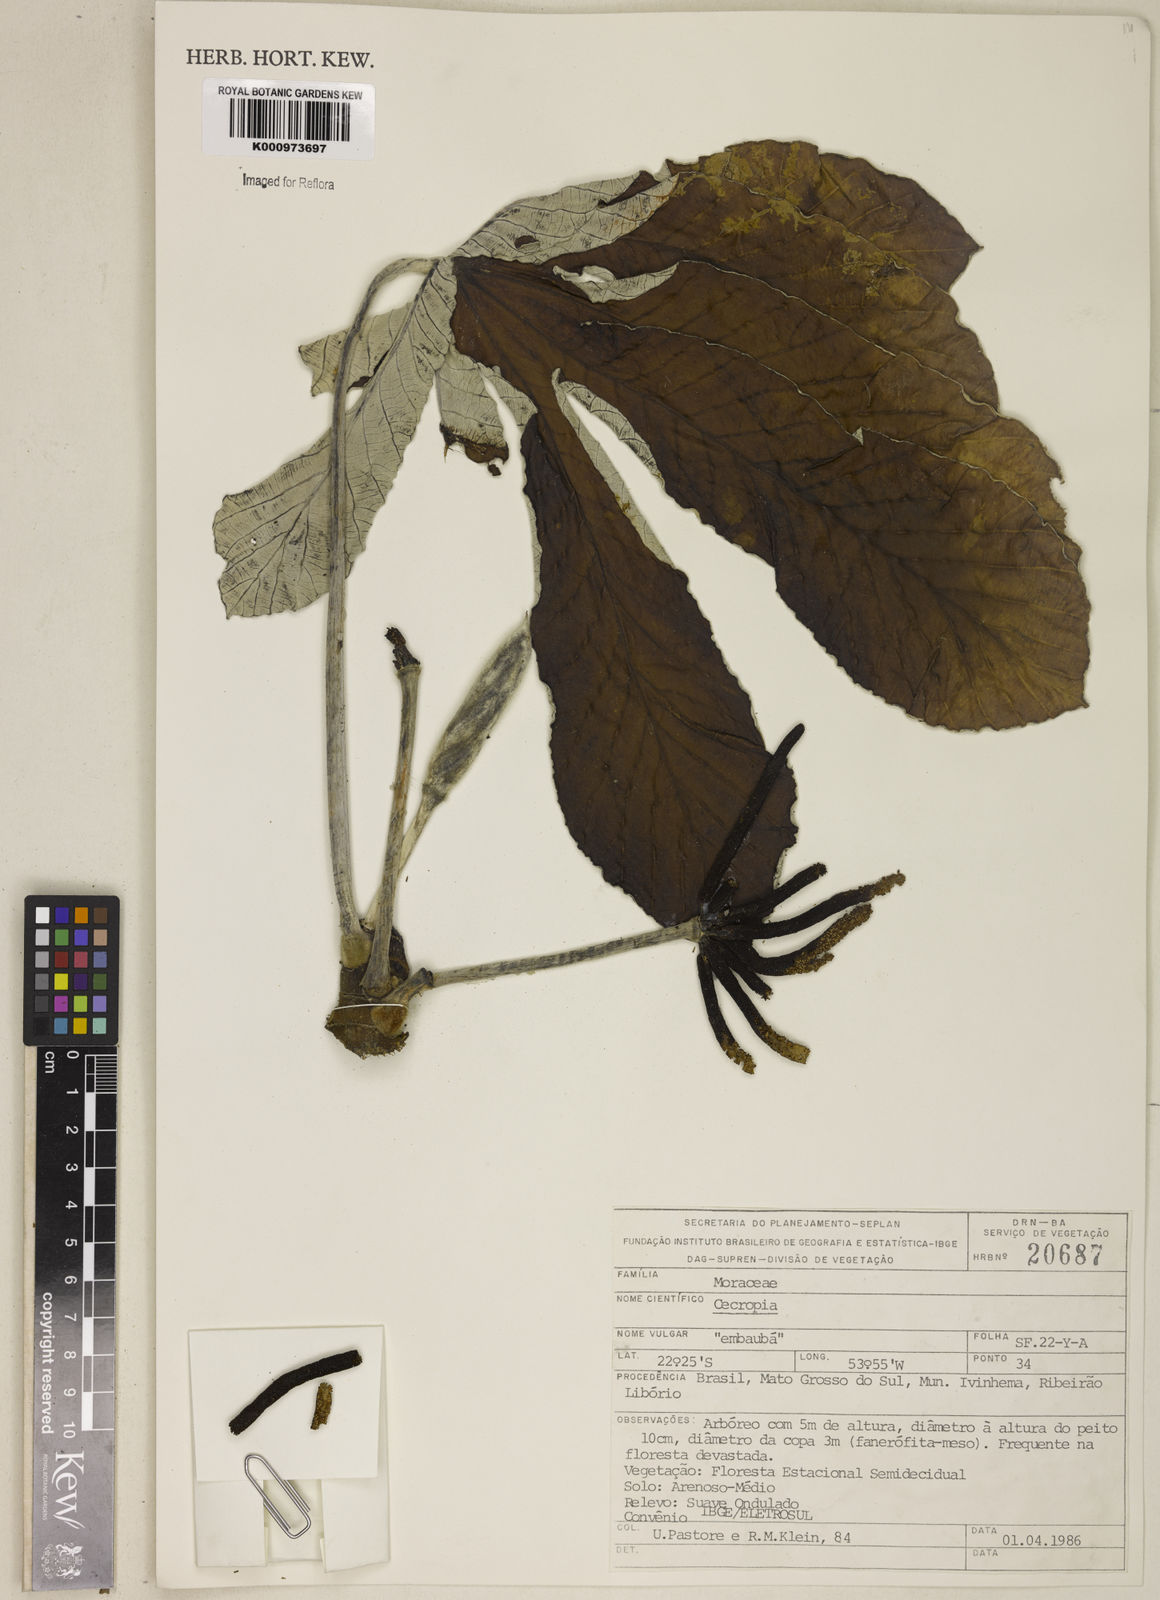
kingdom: Plantae
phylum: Tracheophyta
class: Magnoliopsida
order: Rosales
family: Urticaceae
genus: Cecropia
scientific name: Cecropia
